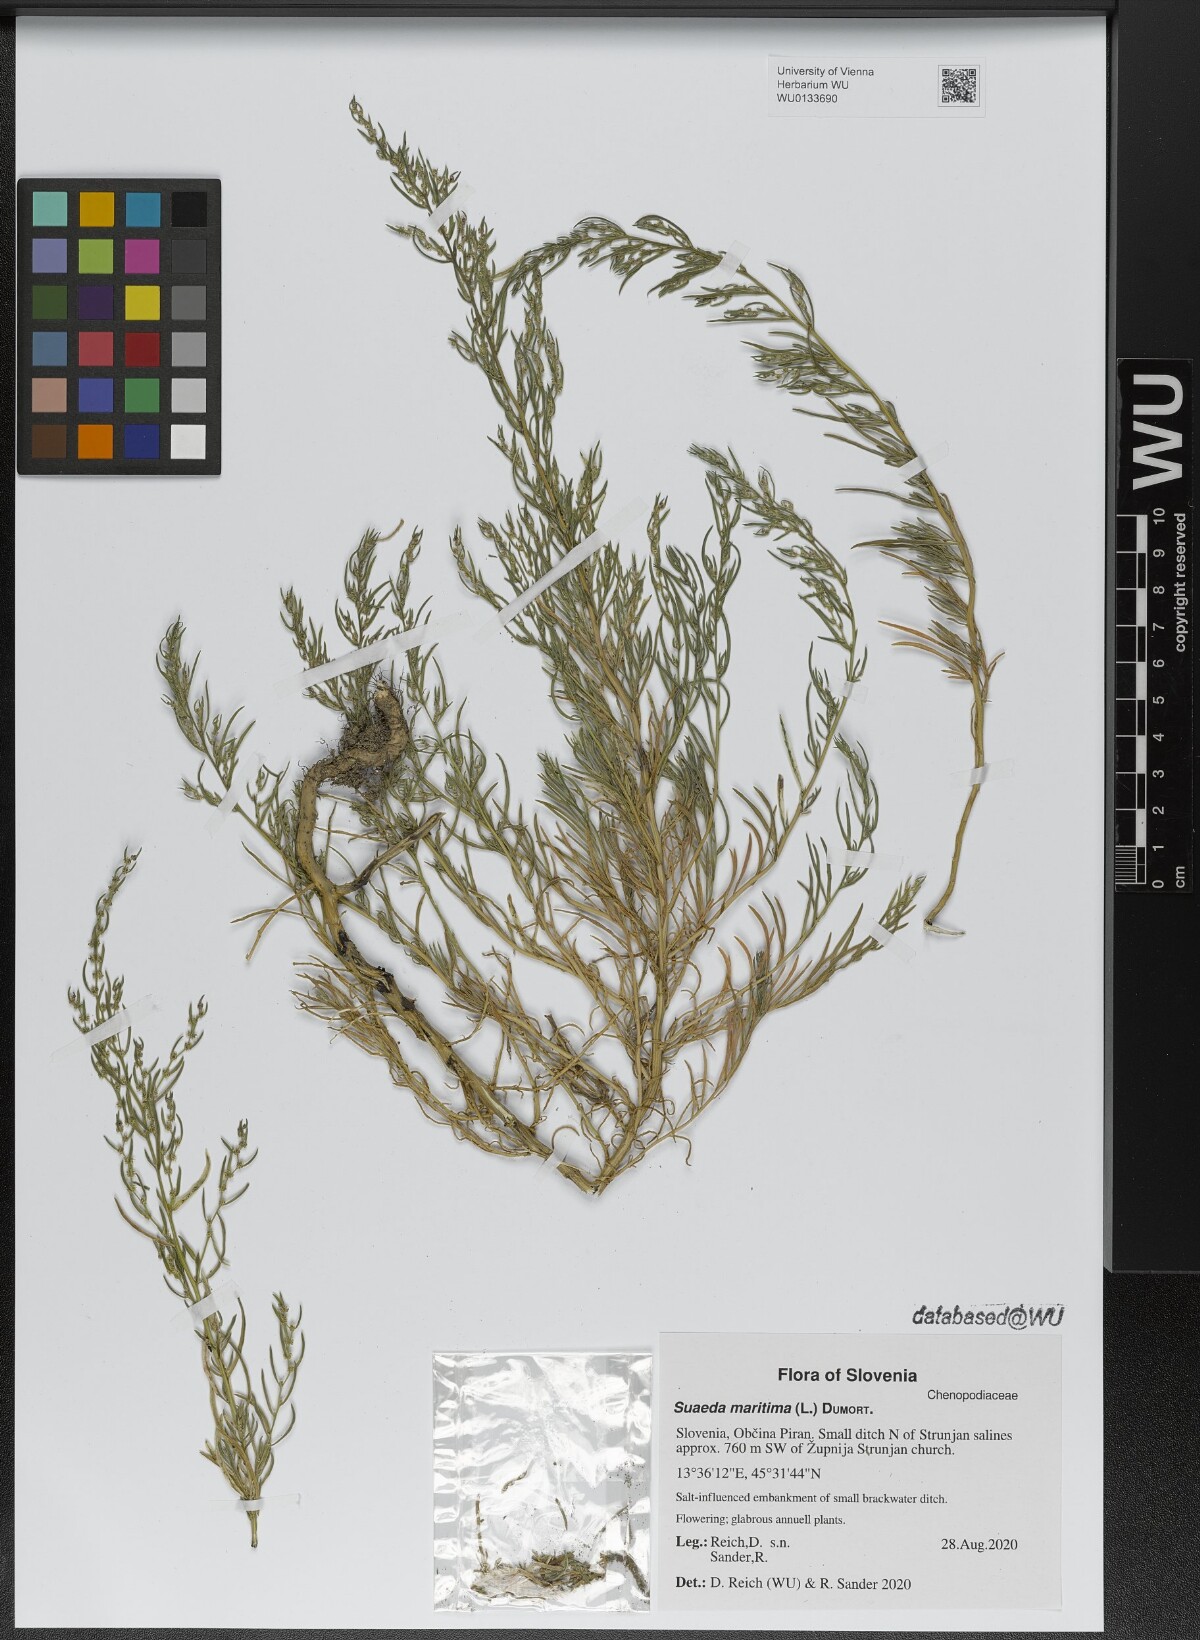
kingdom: Plantae
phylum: Tracheophyta
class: Magnoliopsida
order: Caryophyllales
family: Amaranthaceae
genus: Suaeda
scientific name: Suaeda maritima
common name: Annual sea-blite
